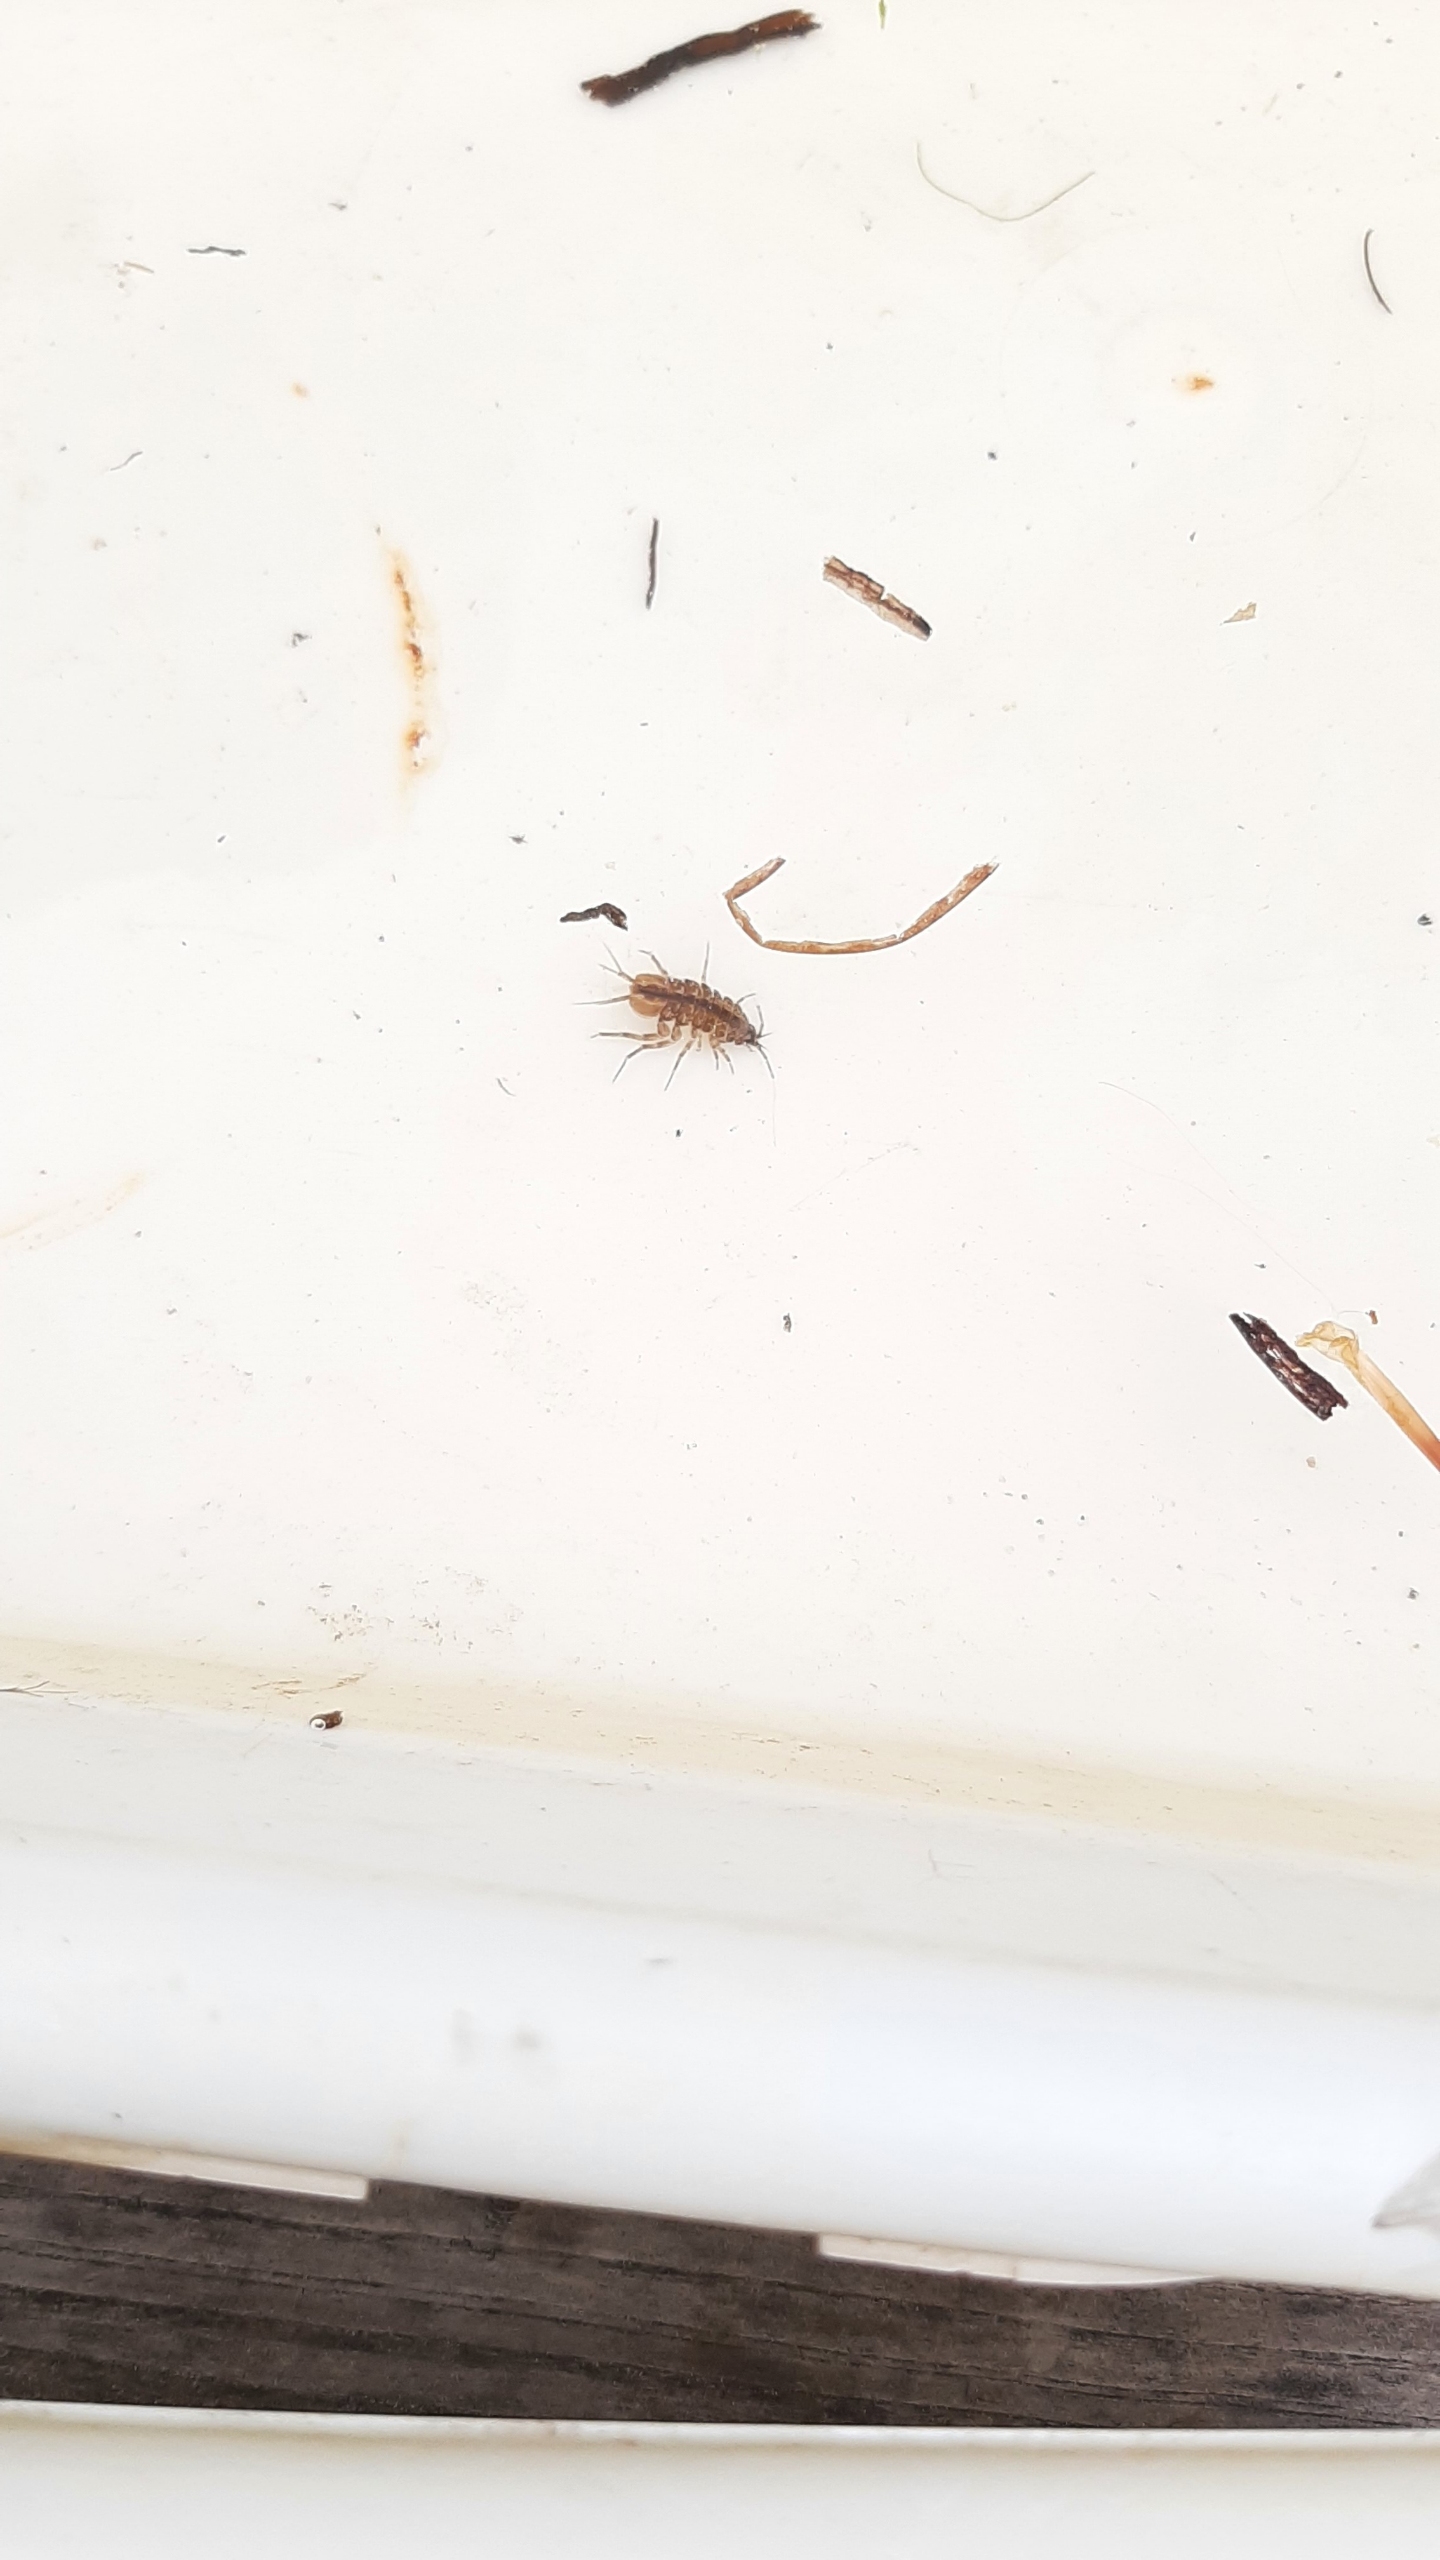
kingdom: Animalia
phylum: Arthropoda
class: Malacostraca
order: Isopoda
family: Asellidae
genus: Asellus
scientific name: Asellus aquaticus
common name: Vandbænkebider
